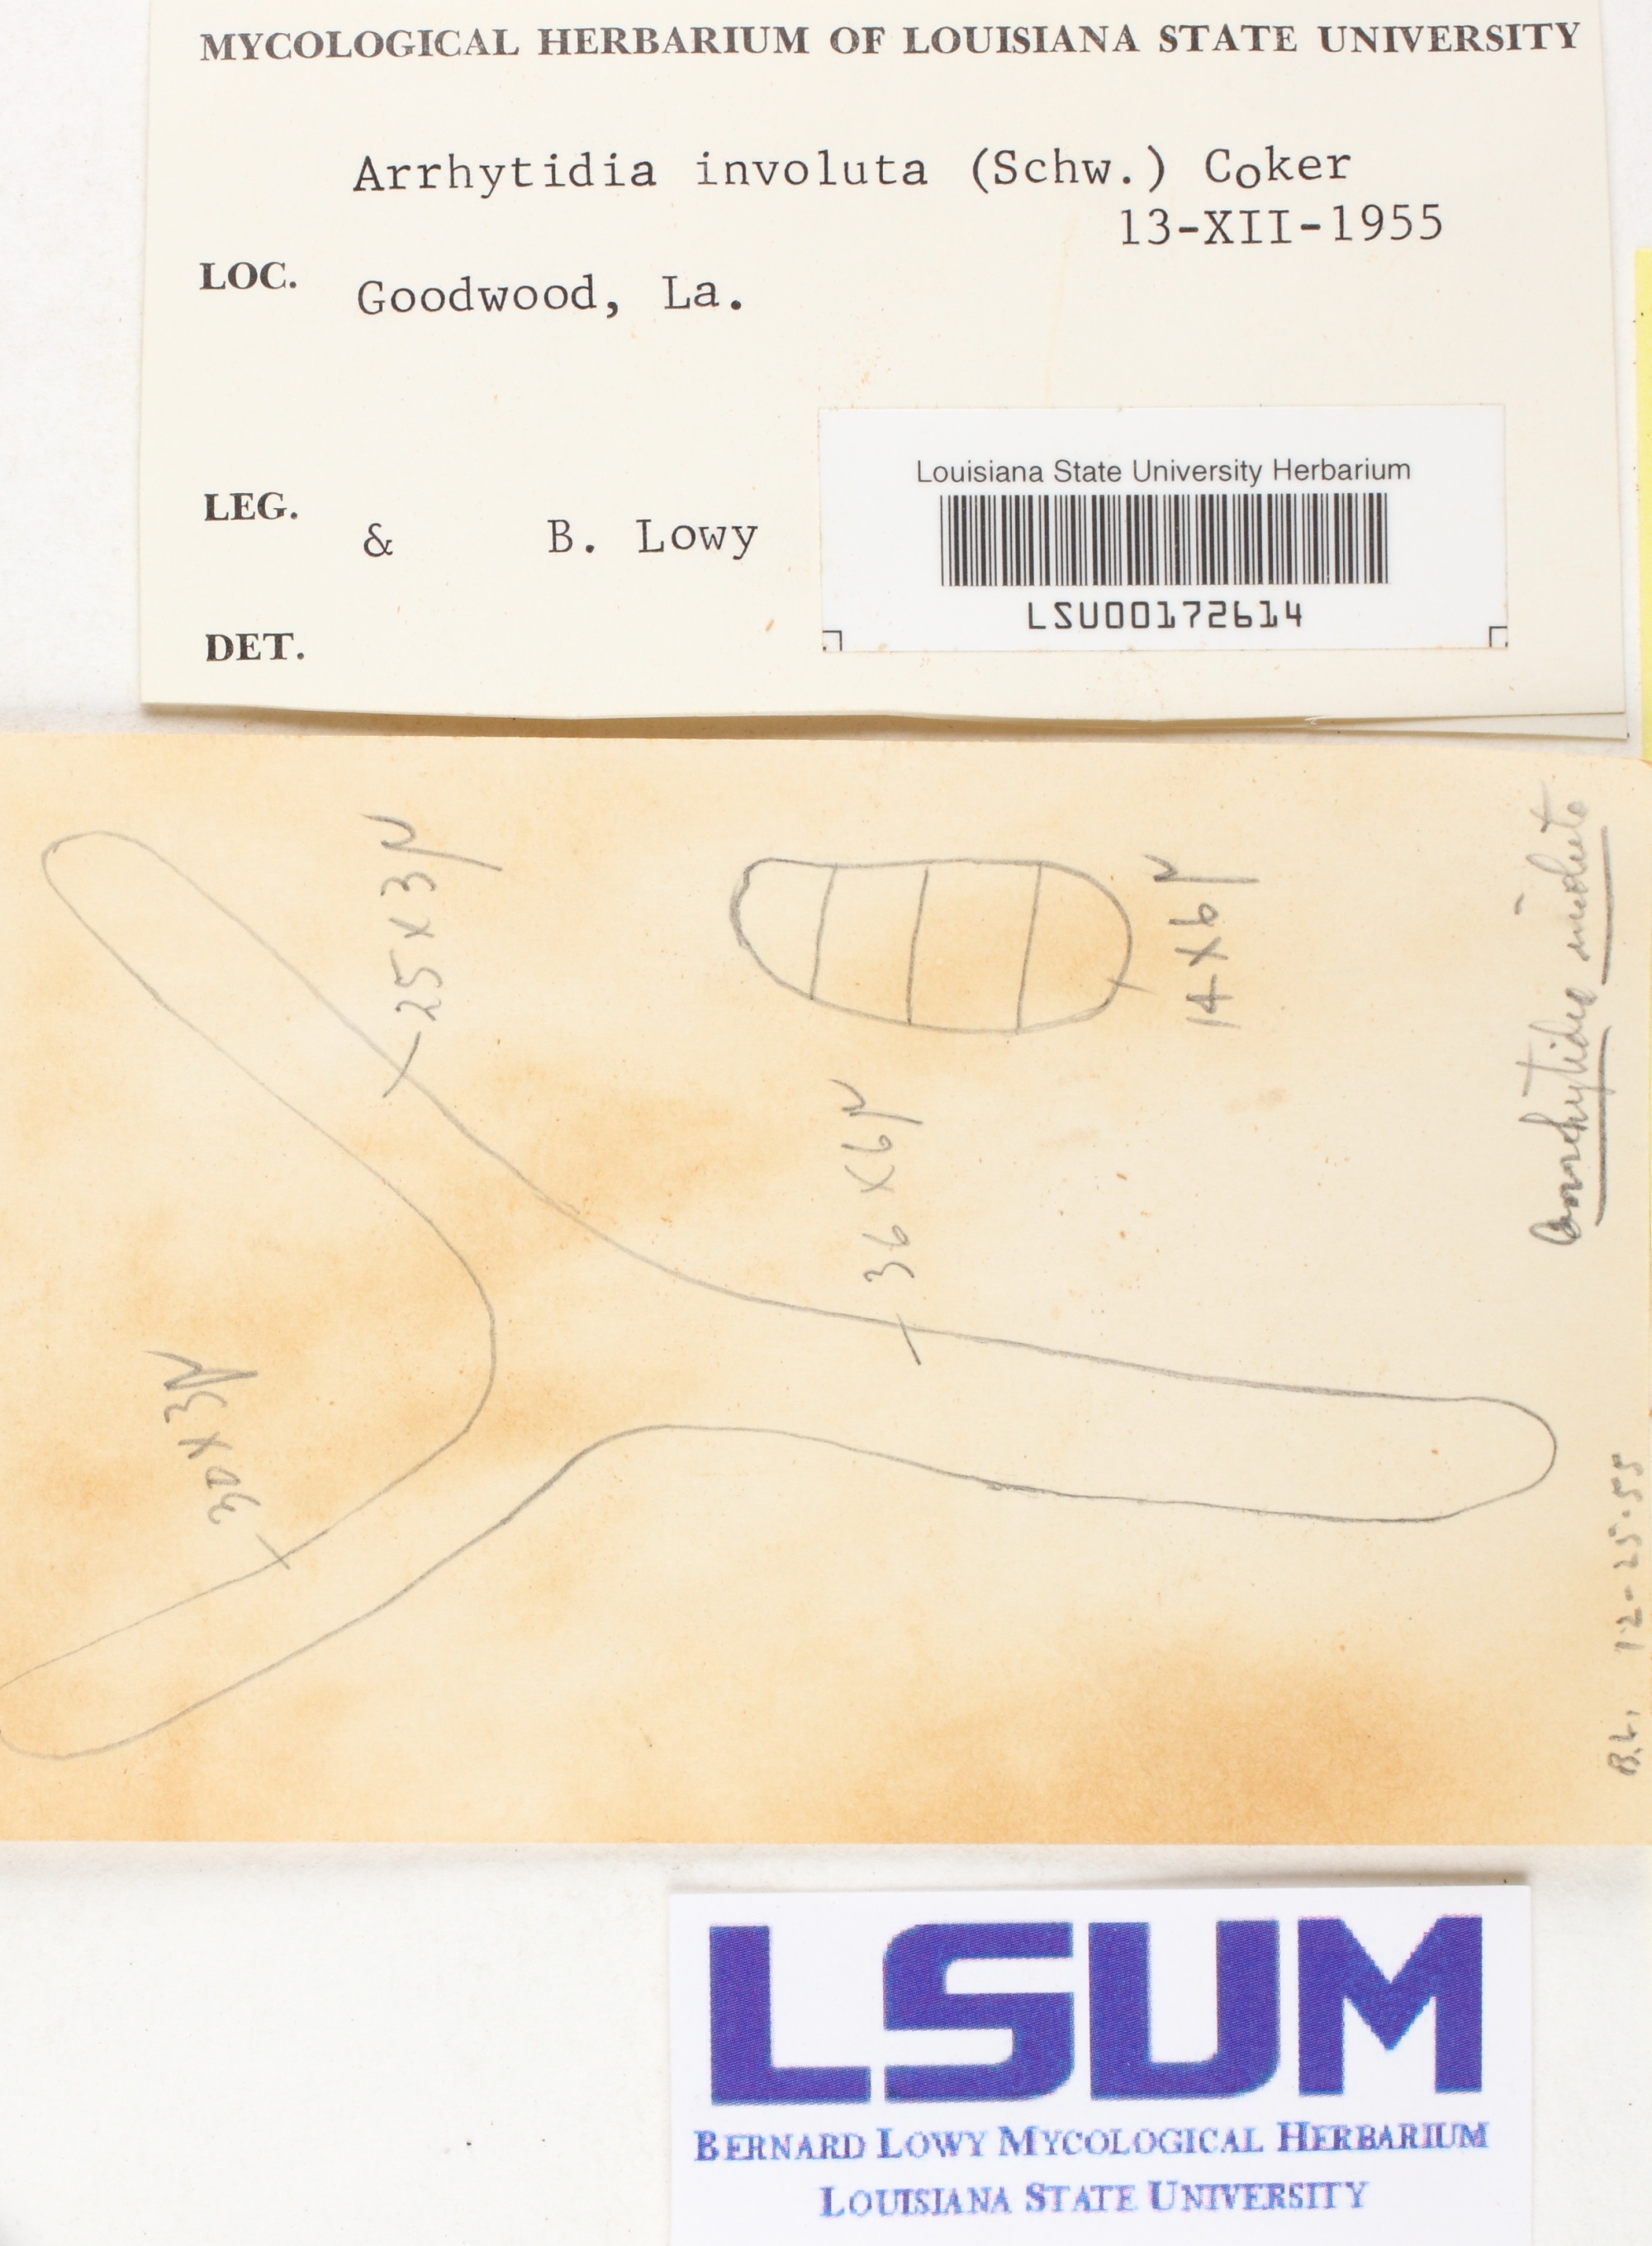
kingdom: Fungi
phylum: Basidiomycota
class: Dacrymycetes
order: Dacrymycetales
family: Dacrymycetaceae
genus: Dacrymyces
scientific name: Dacrymyces involutus
